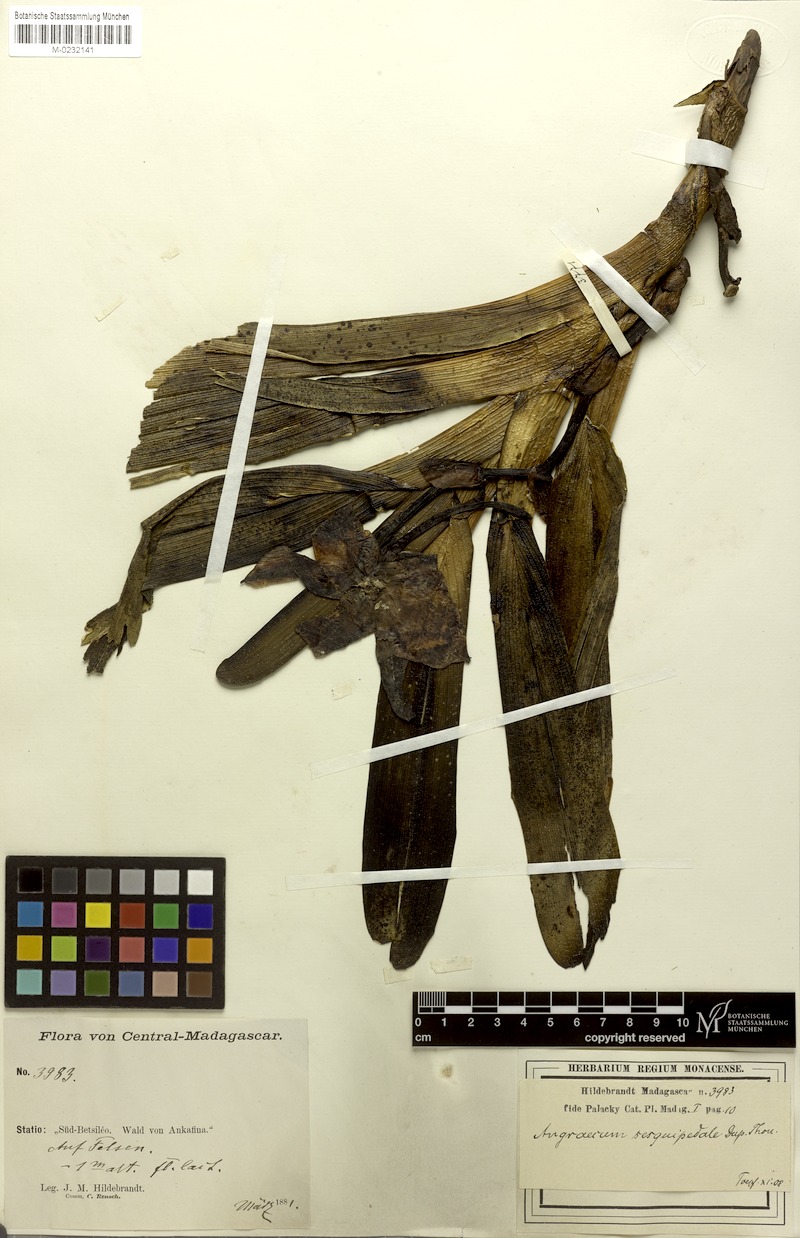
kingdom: Plantae
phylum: Tracheophyta
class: Liliopsida
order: Asparagales
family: Orchidaceae
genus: Angraecum
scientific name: Angraecum sesquipedale
